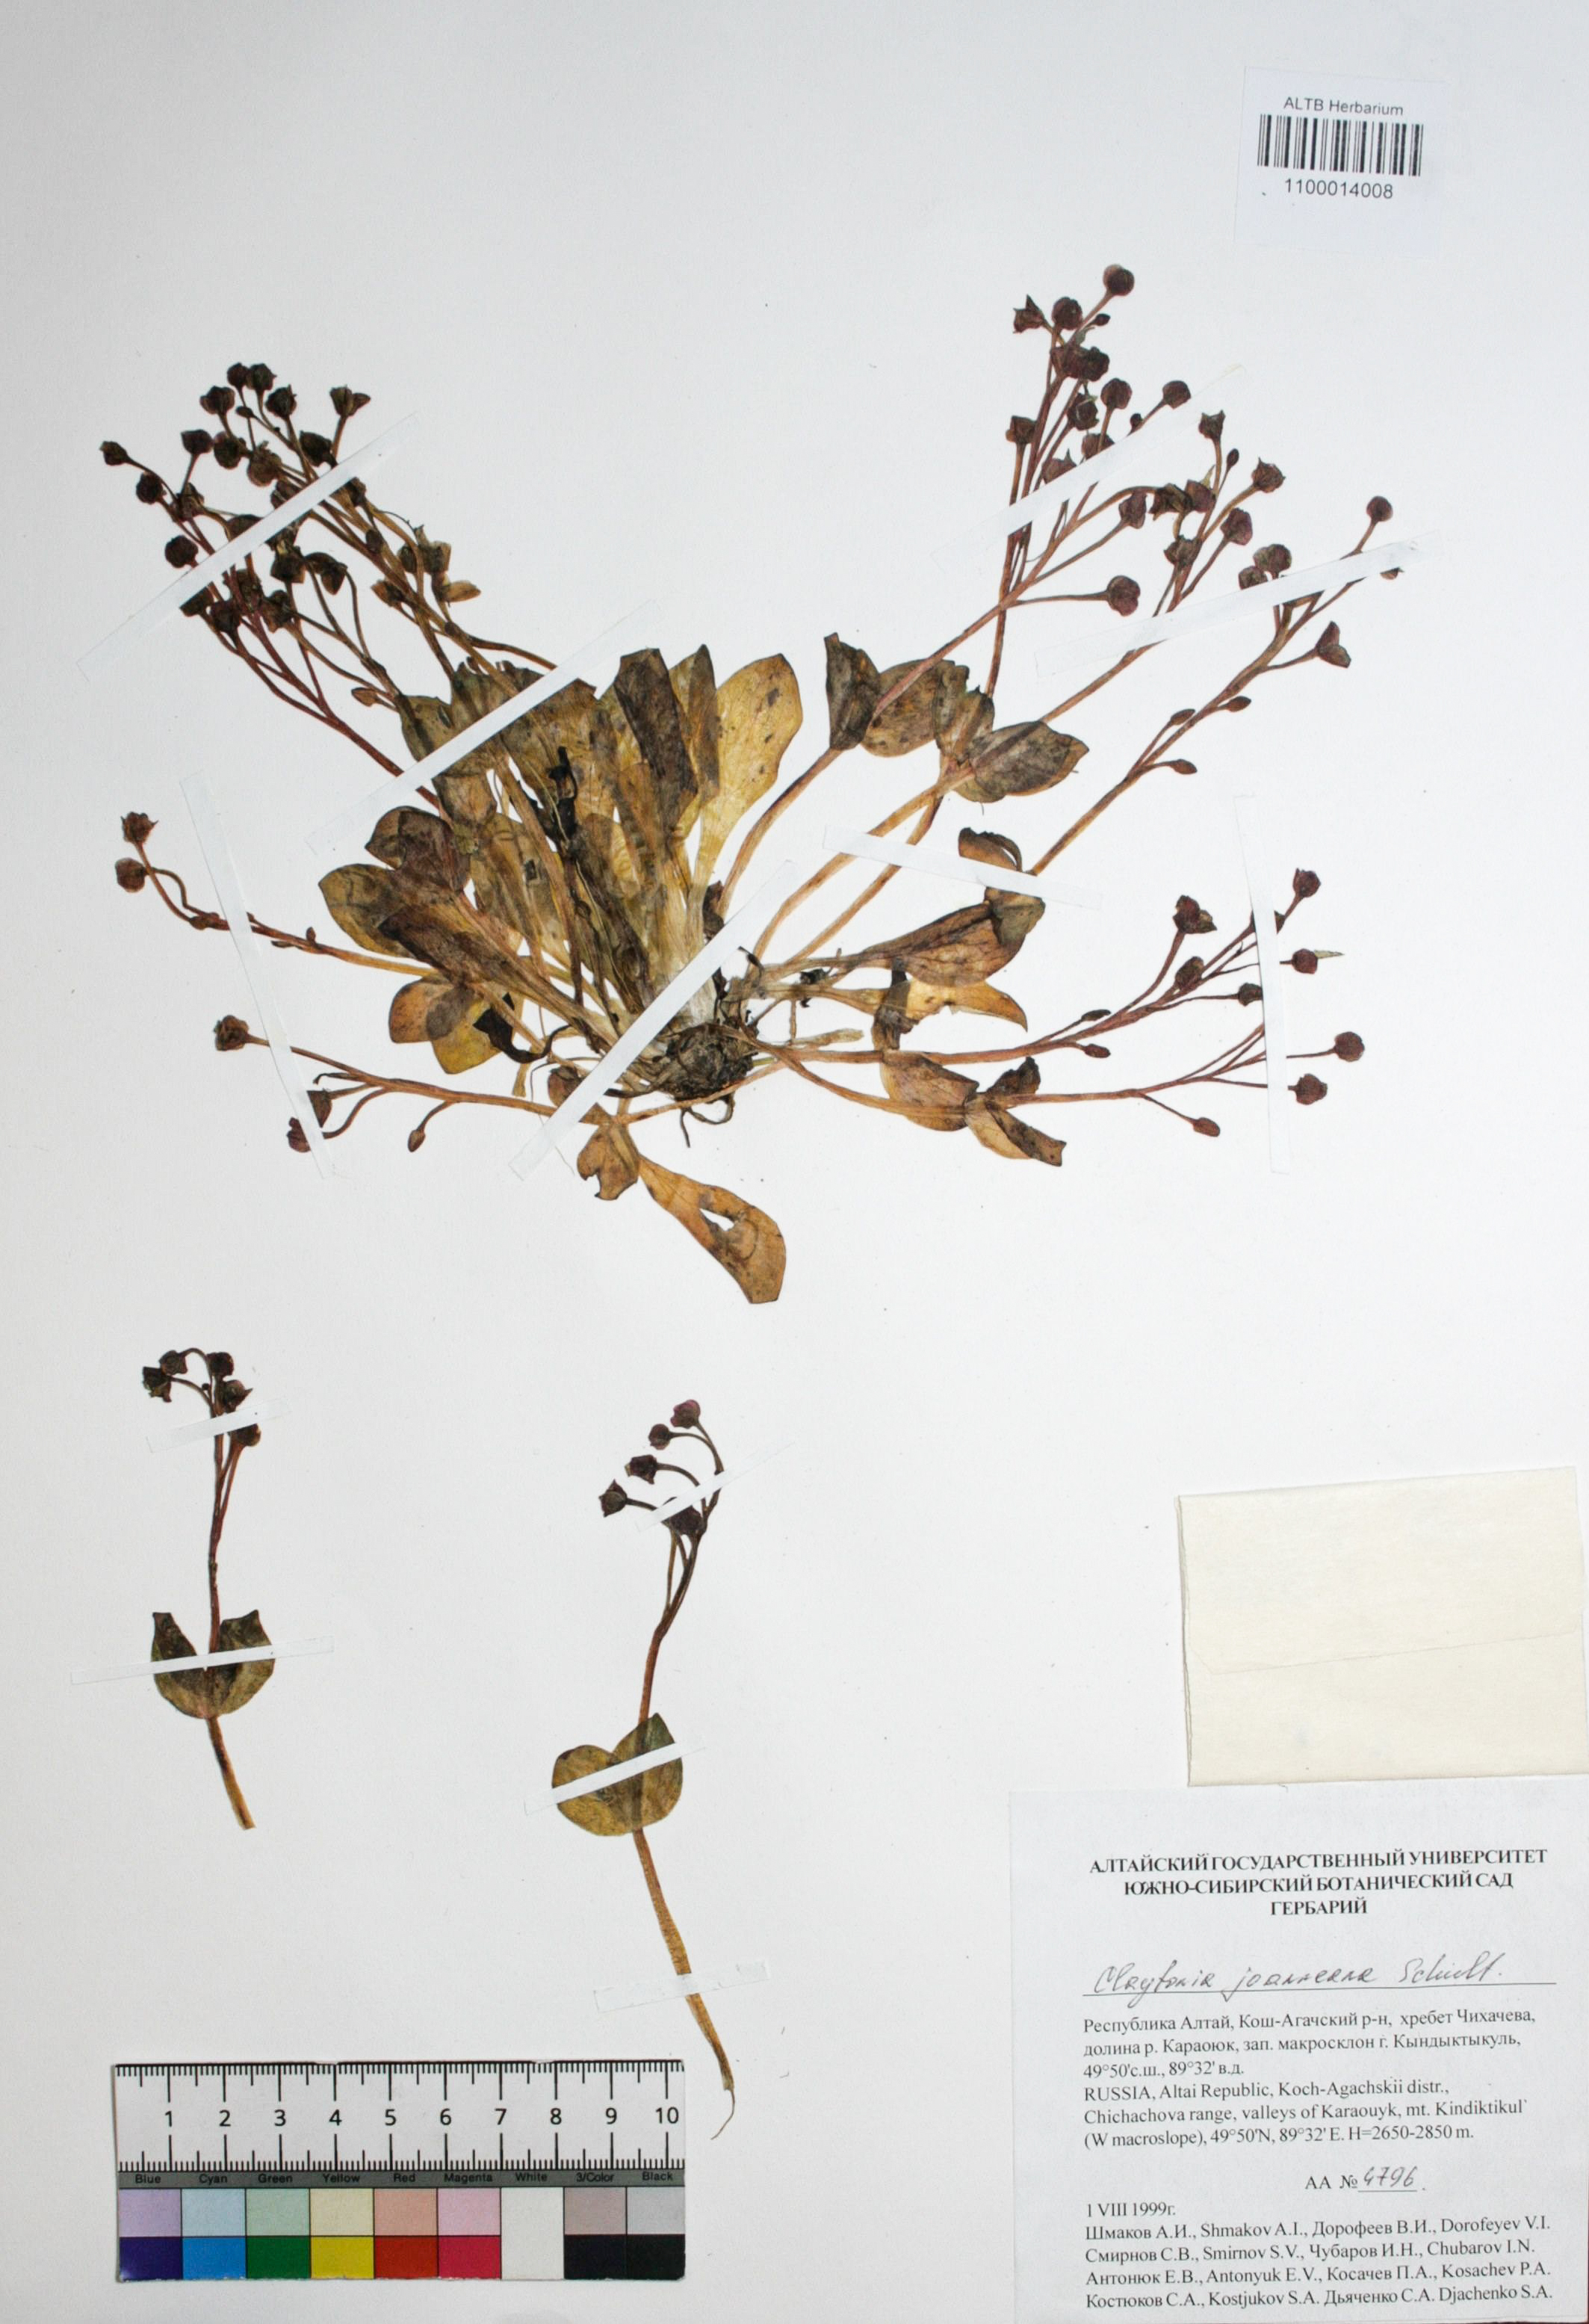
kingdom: Plantae
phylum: Tracheophyta
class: Magnoliopsida
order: Caryophyllales
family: Montiaceae
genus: Claytonia
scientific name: Claytonia joanneana
